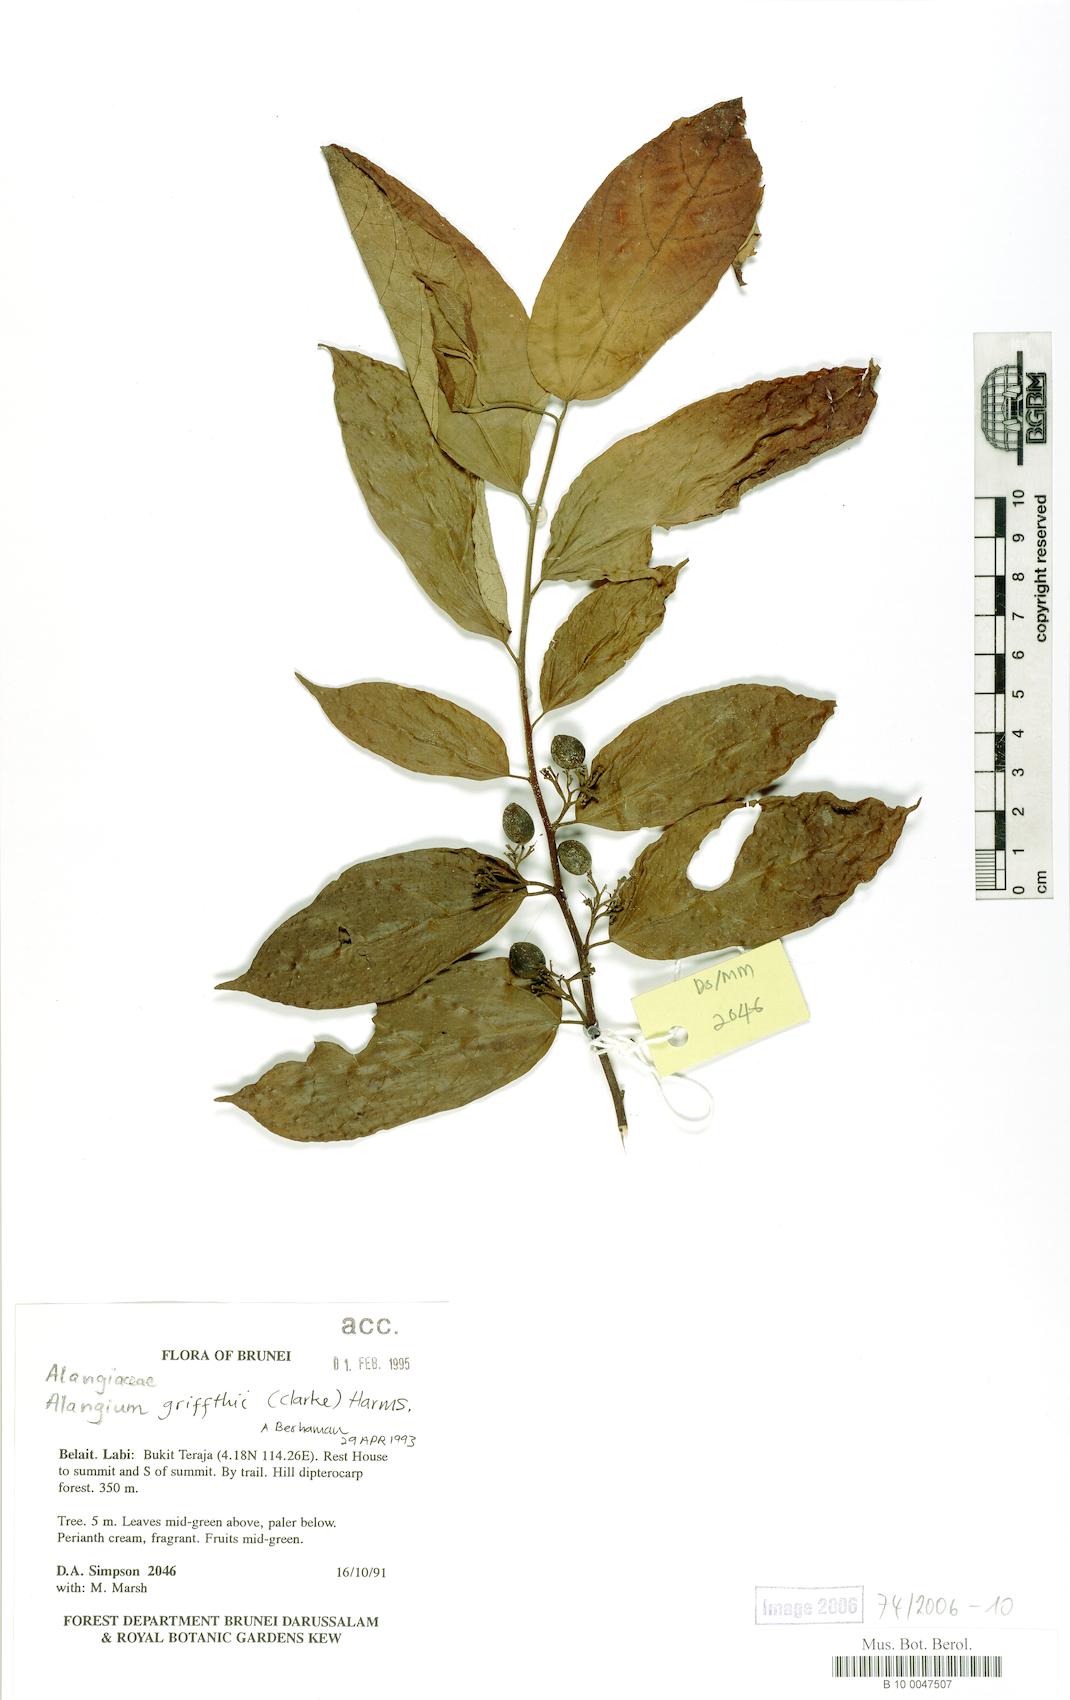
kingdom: Plantae
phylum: Tracheophyta
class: Magnoliopsida
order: Cornales
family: Cornaceae
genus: Alangium
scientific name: Alangium uniloculare
